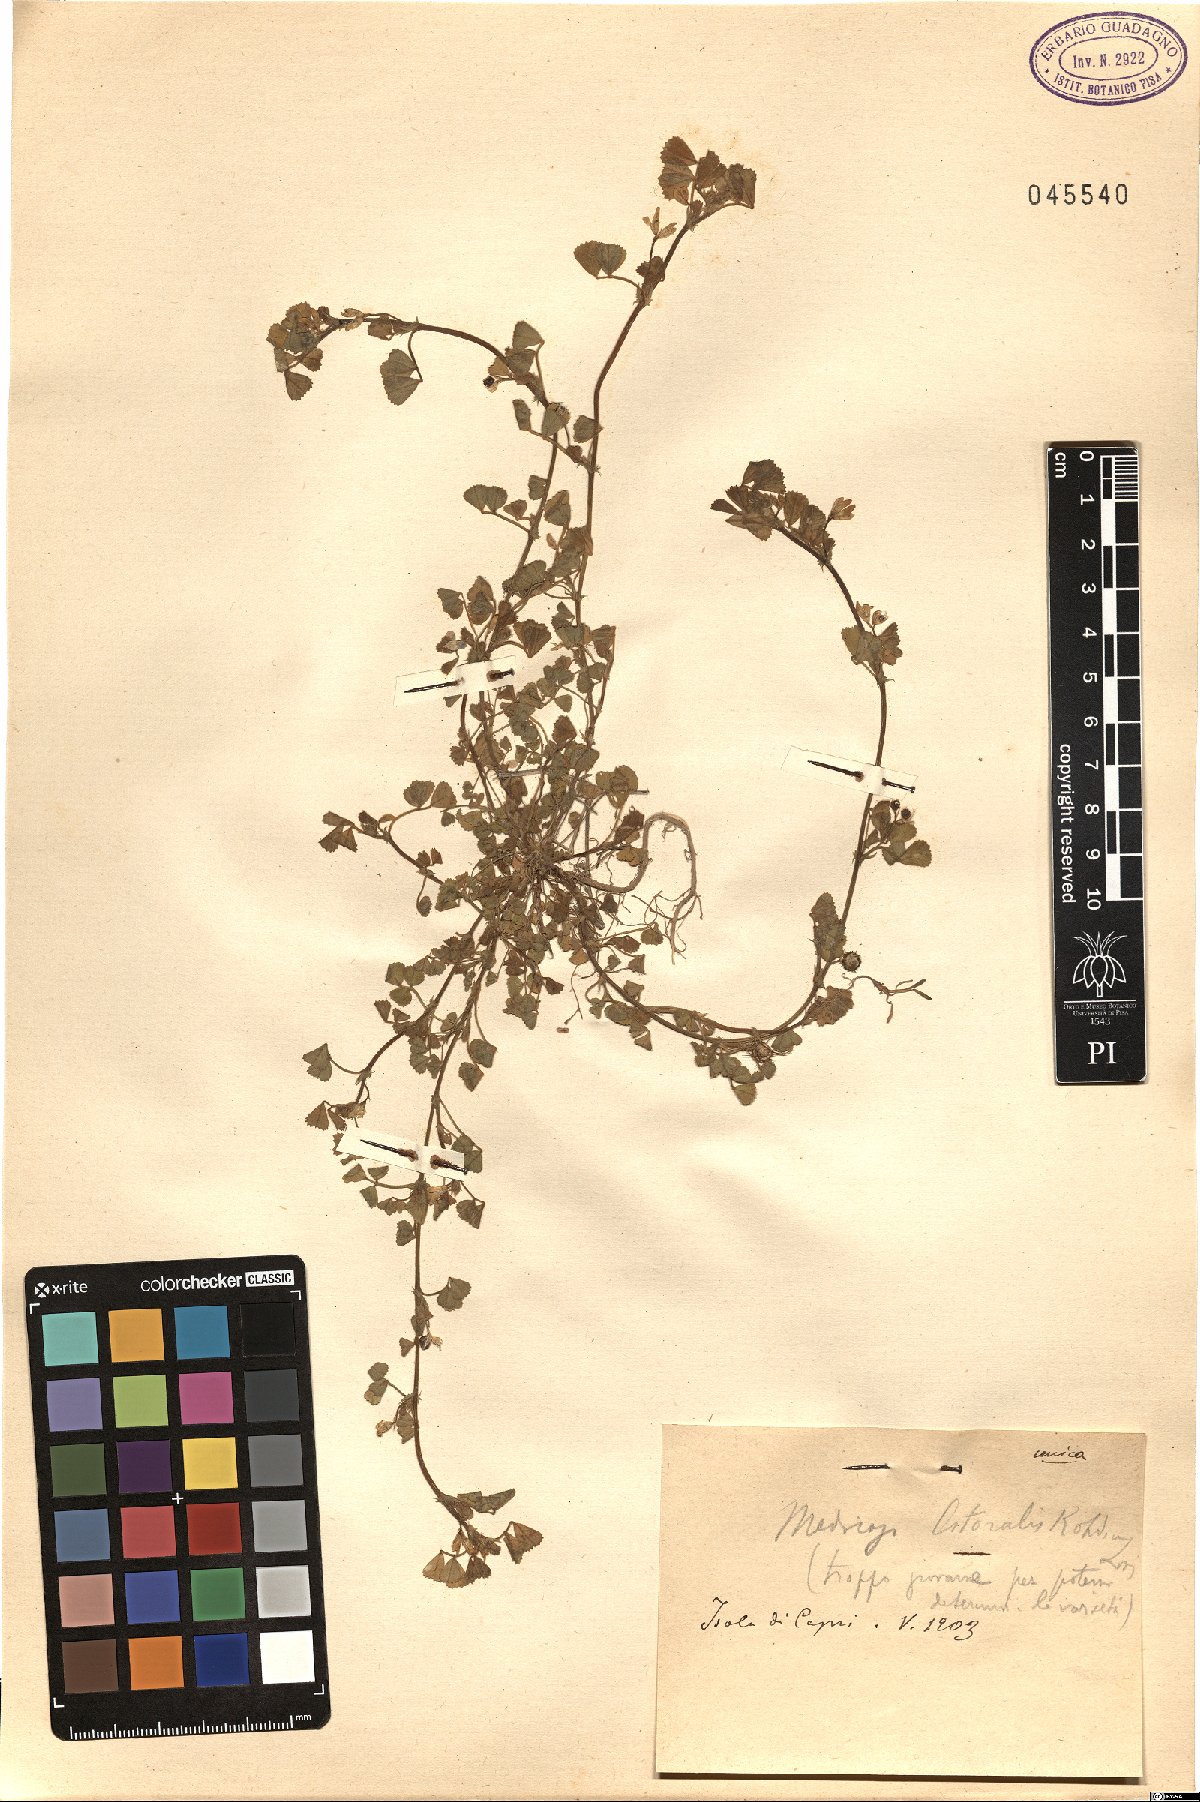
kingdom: Plantae
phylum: Tracheophyta
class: Magnoliopsida
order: Fabales
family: Fabaceae
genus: Medicago
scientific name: Medicago littoralis
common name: Shore medick
